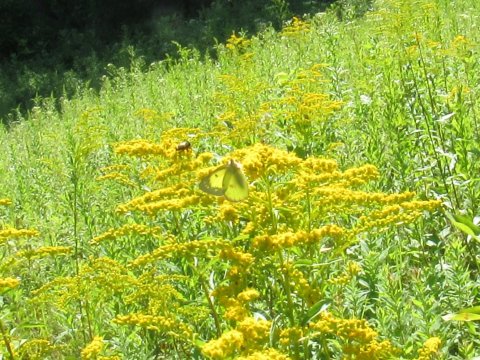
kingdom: Animalia
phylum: Arthropoda
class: Insecta
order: Lepidoptera
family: Pieridae
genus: Colias
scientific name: Colias philodice
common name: Clouded Sulphur
